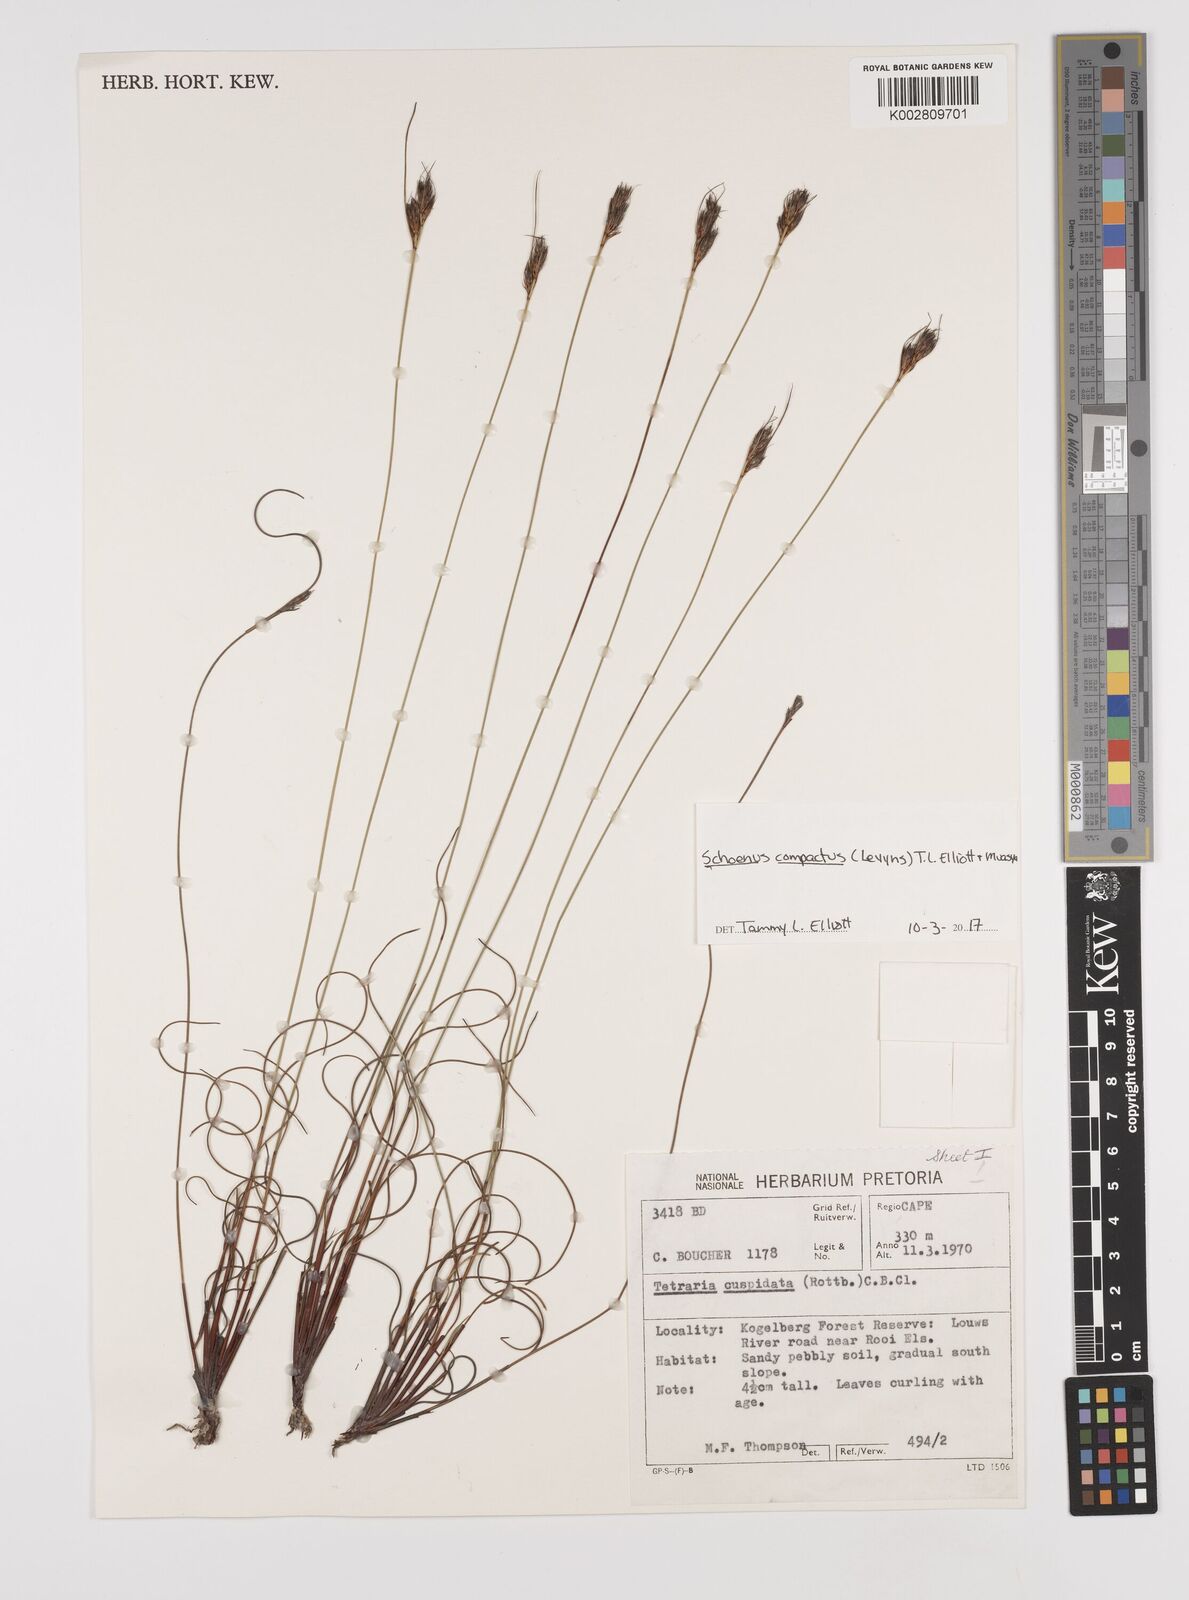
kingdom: Plantae
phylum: Tracheophyta
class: Liliopsida
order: Poales
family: Cyperaceae
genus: Schoenus
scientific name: Schoenus compactus
